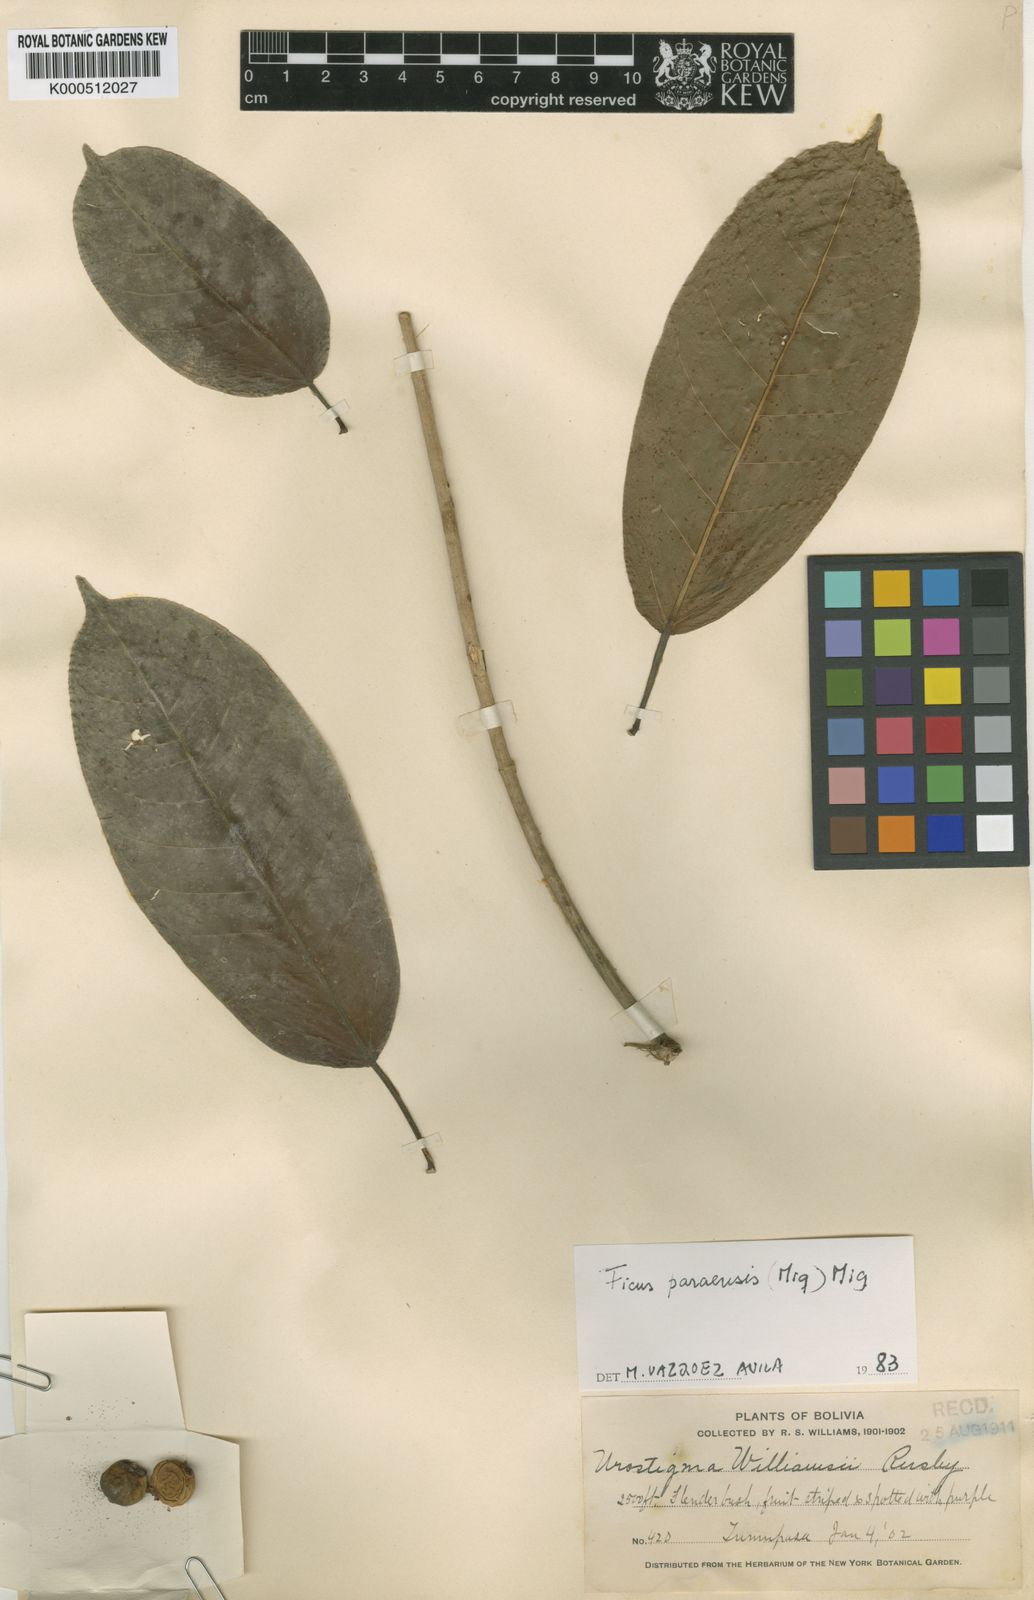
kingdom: Plantae
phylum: Tracheophyta
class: Magnoliopsida
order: Rosales
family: Moraceae
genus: Ficus
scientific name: Ficus paraensis
